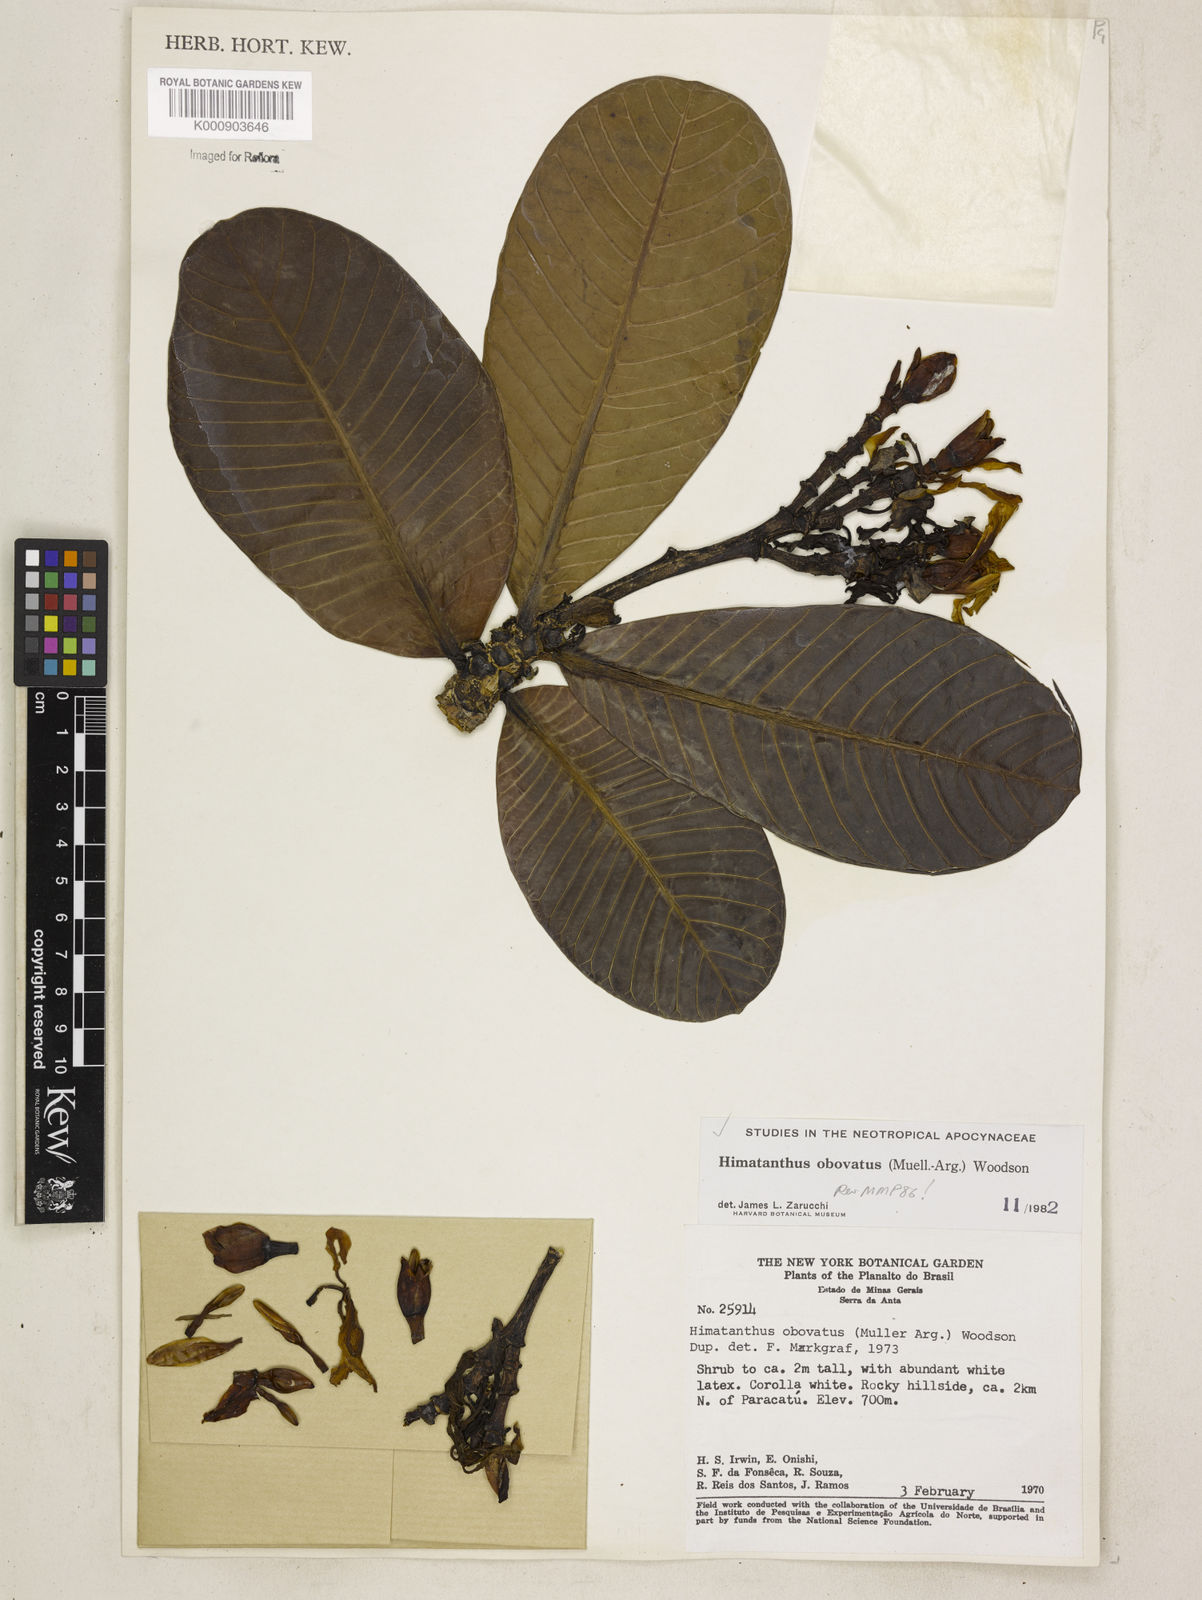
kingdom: Plantae
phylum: Tracheophyta
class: Magnoliopsida
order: Gentianales
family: Apocynaceae
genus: Himatanthus
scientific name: Himatanthus
